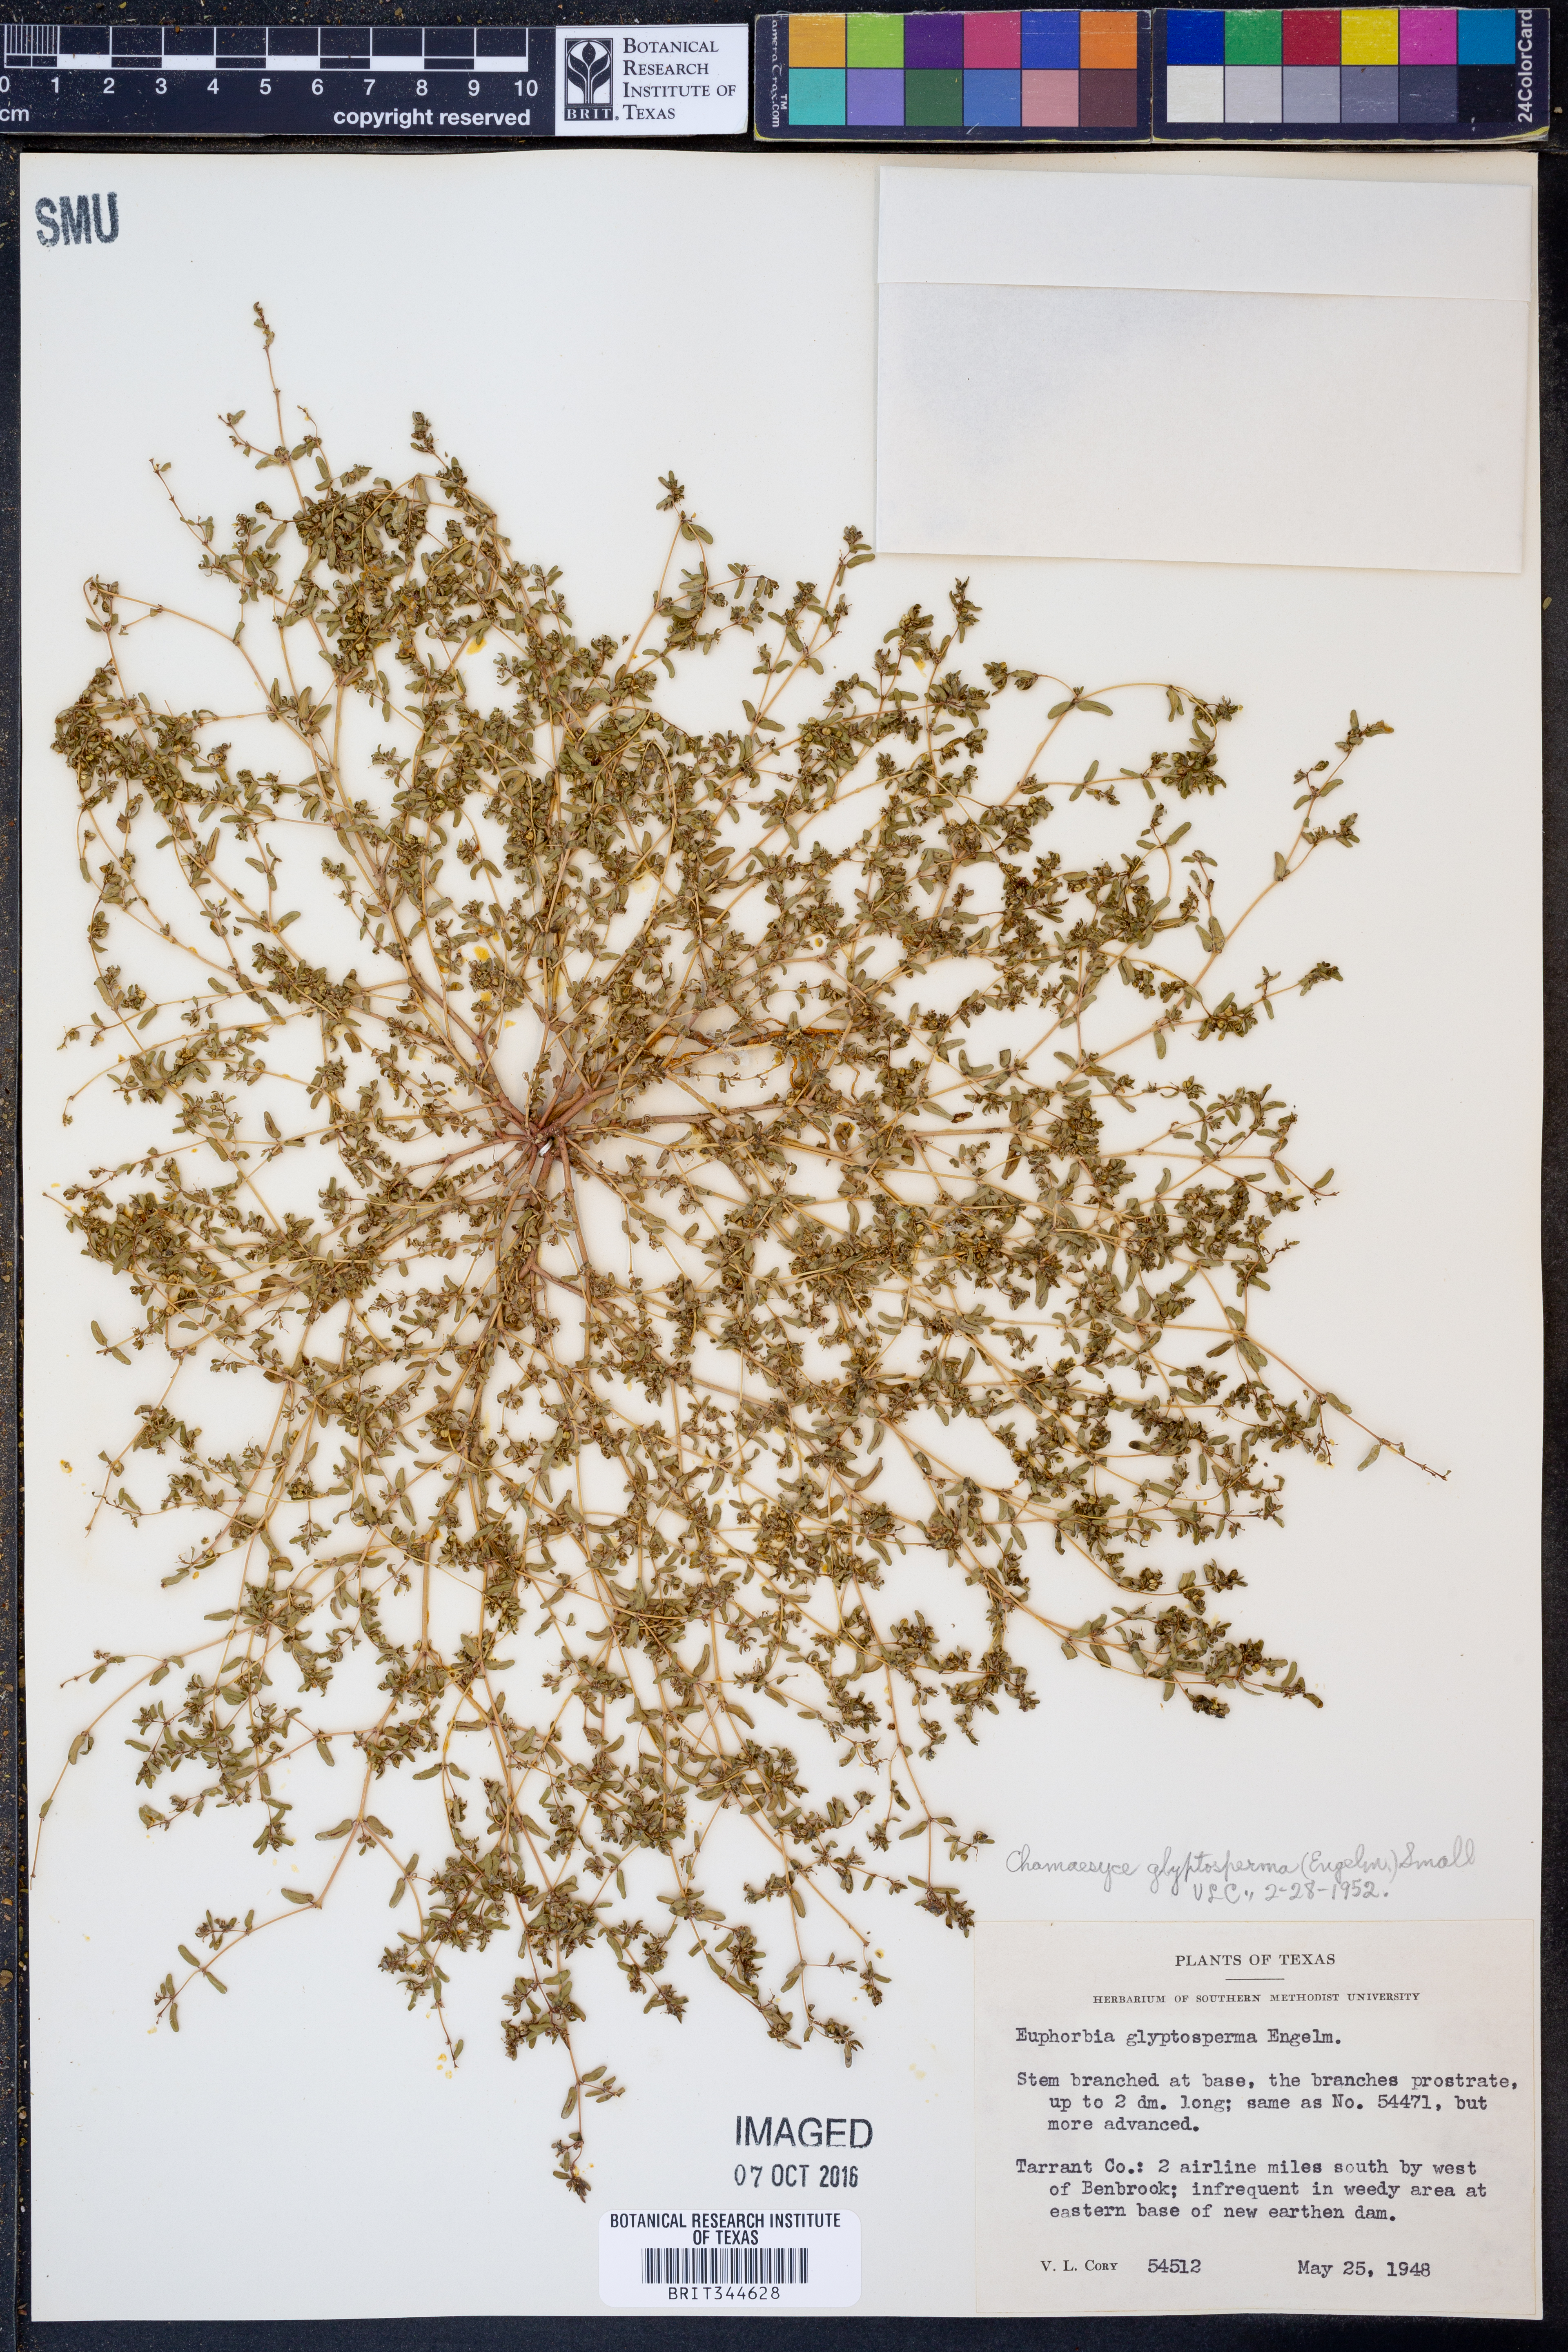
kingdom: Plantae
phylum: Tracheophyta
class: Magnoliopsida
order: Malpighiales
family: Euphorbiaceae
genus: Euphorbia
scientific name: Euphorbia glyptosperma
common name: Corrugate-seeded spurge
